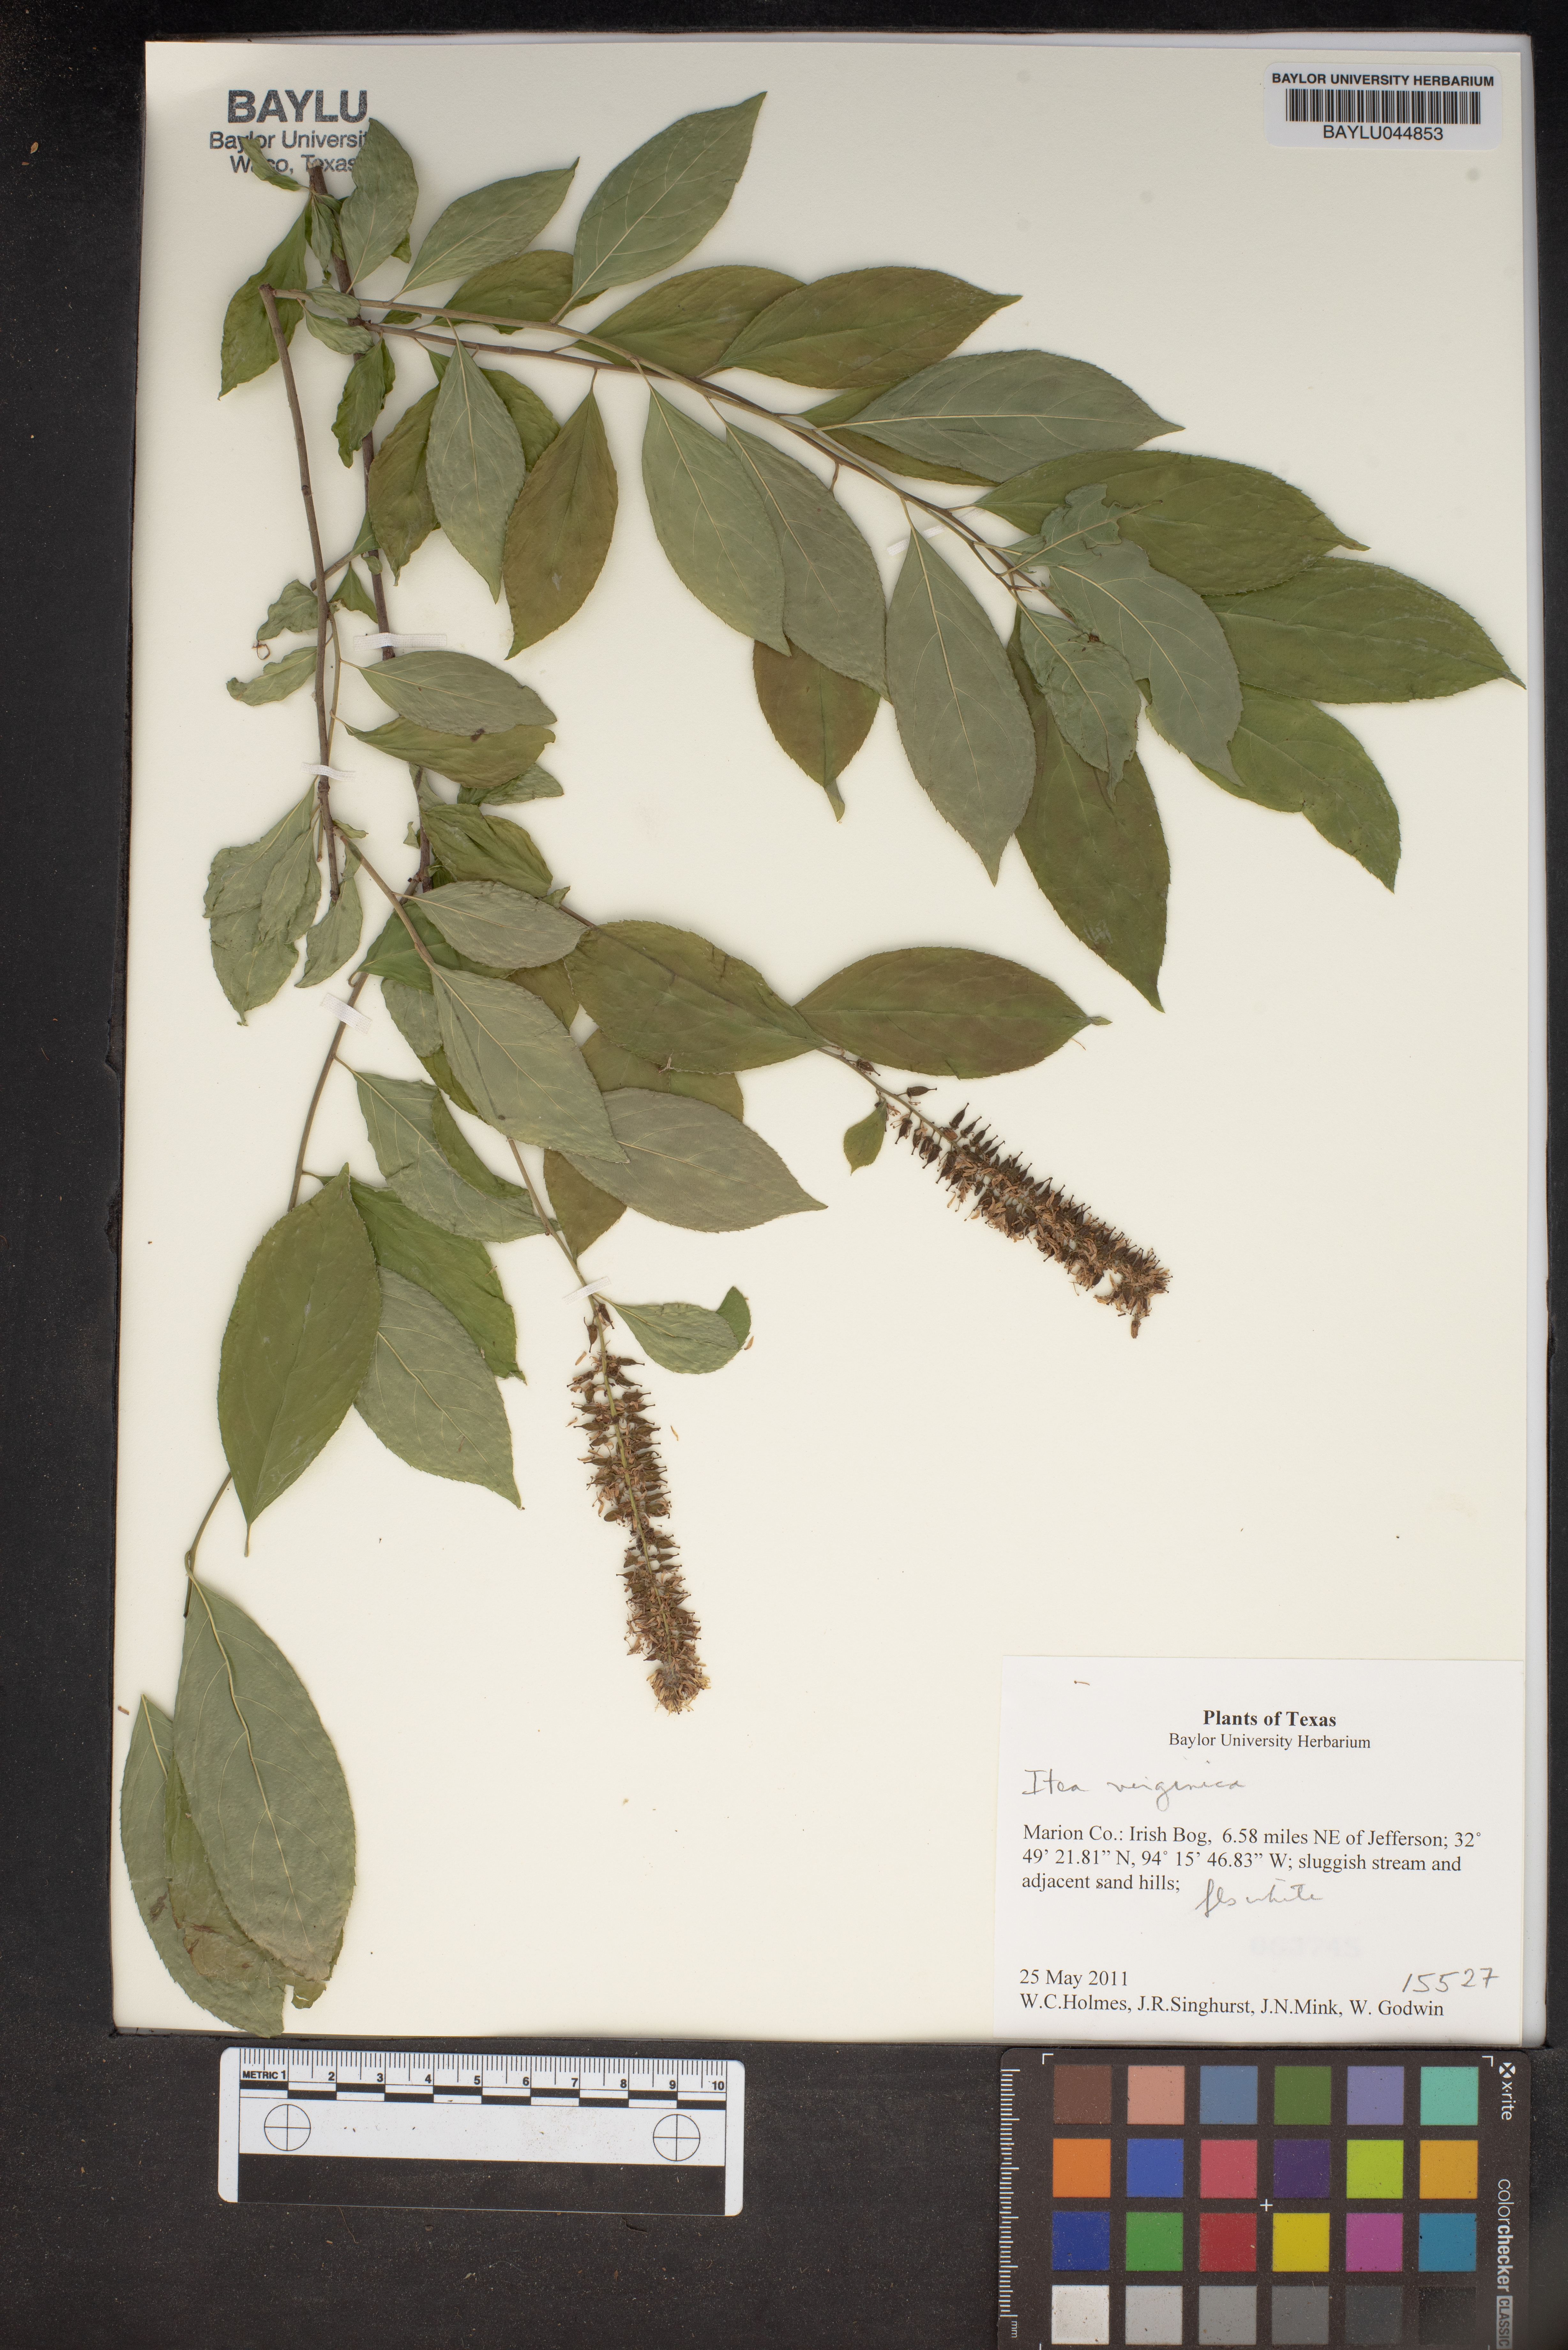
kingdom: Plantae
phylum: Tracheophyta
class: Magnoliopsida
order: Saxifragales
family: Iteaceae
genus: Itea
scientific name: Itea virginica
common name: Sweetspire
